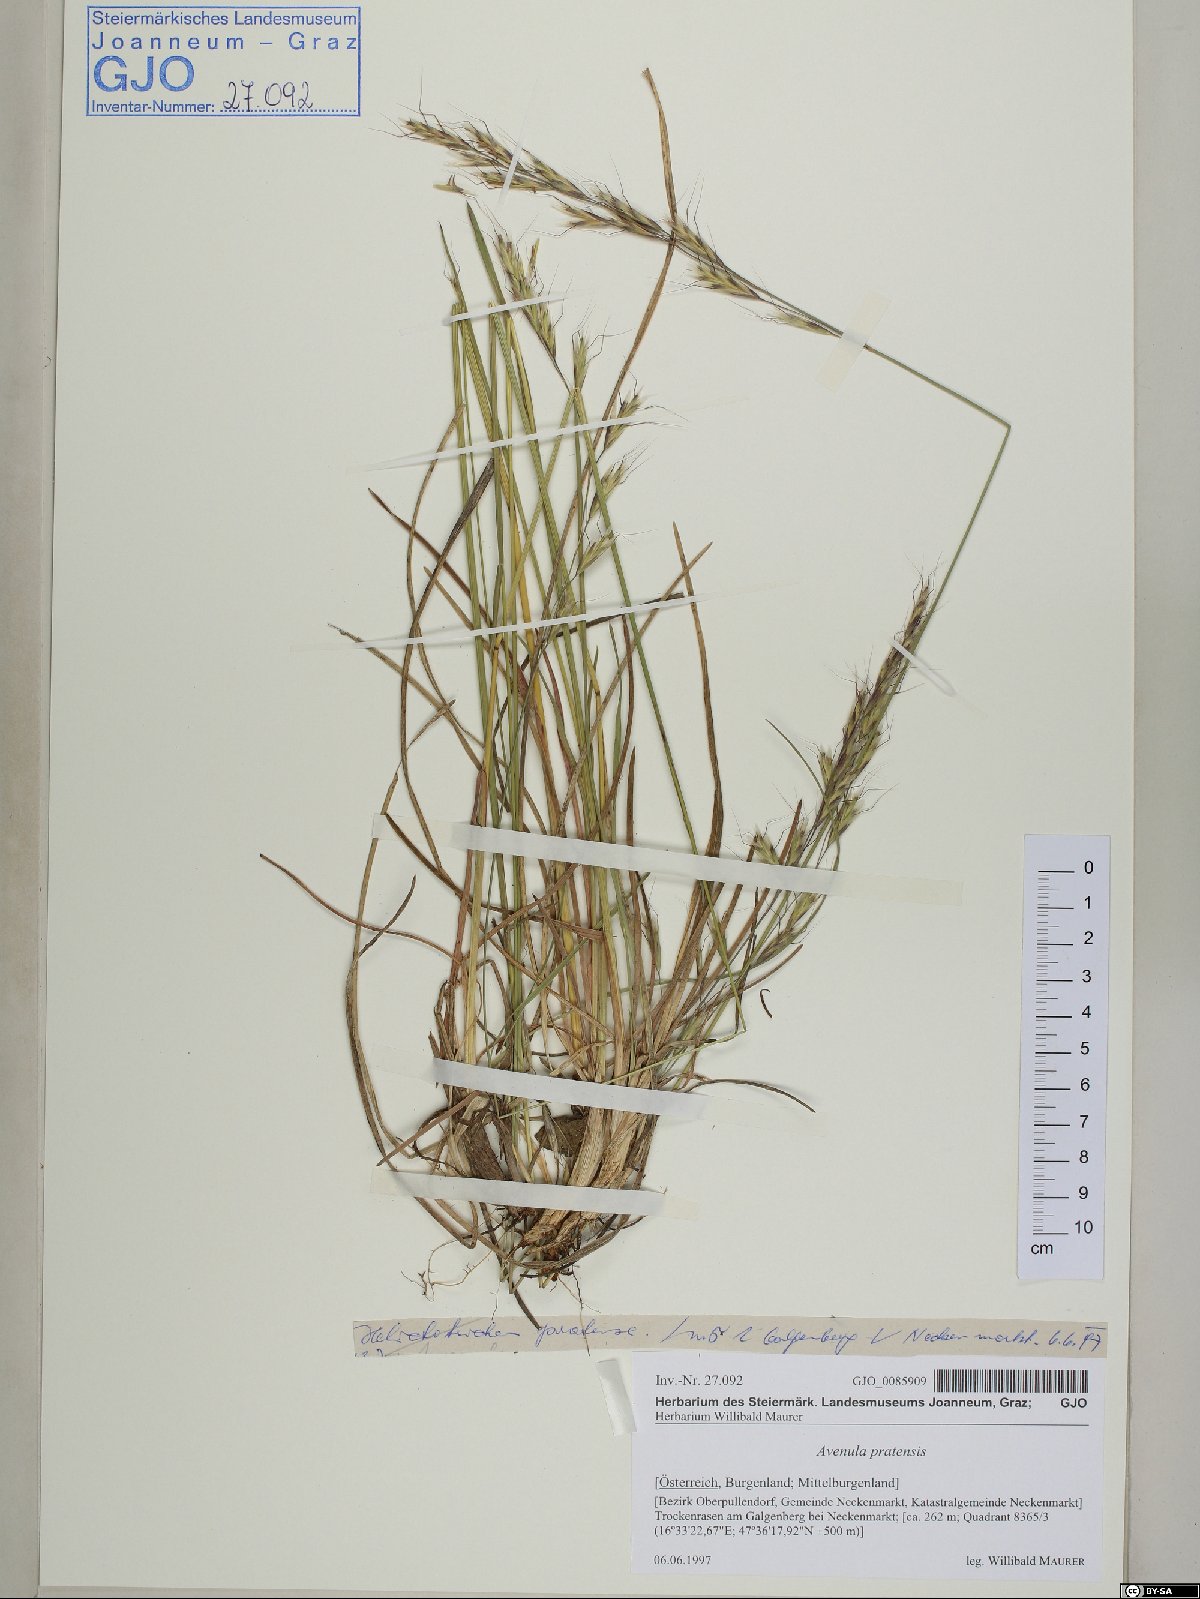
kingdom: Plantae
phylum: Tracheophyta
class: Liliopsida
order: Poales
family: Poaceae
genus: Helictochloa
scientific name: Helictochloa pratensis
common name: Meadow oat grass
